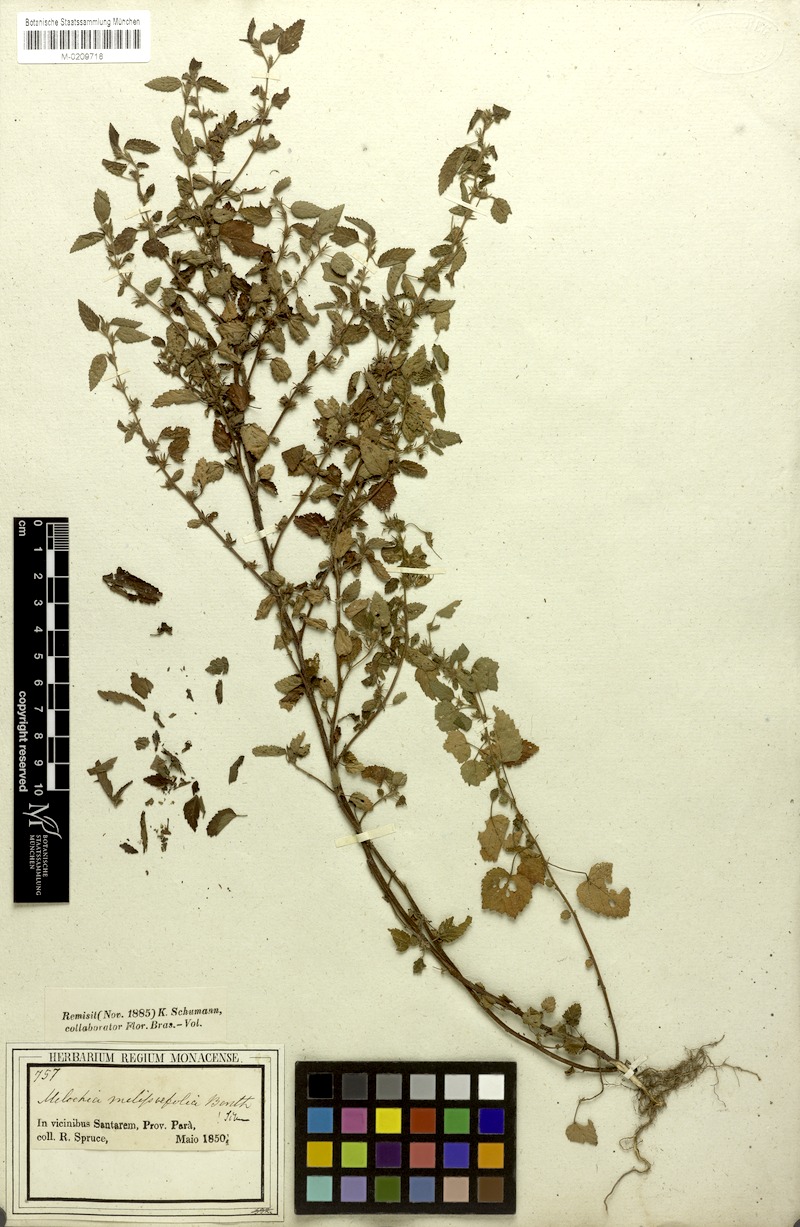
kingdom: Plantae
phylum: Tracheophyta
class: Magnoliopsida
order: Malvales
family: Malvaceae
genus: Melochia
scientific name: Melochia melissifolia
